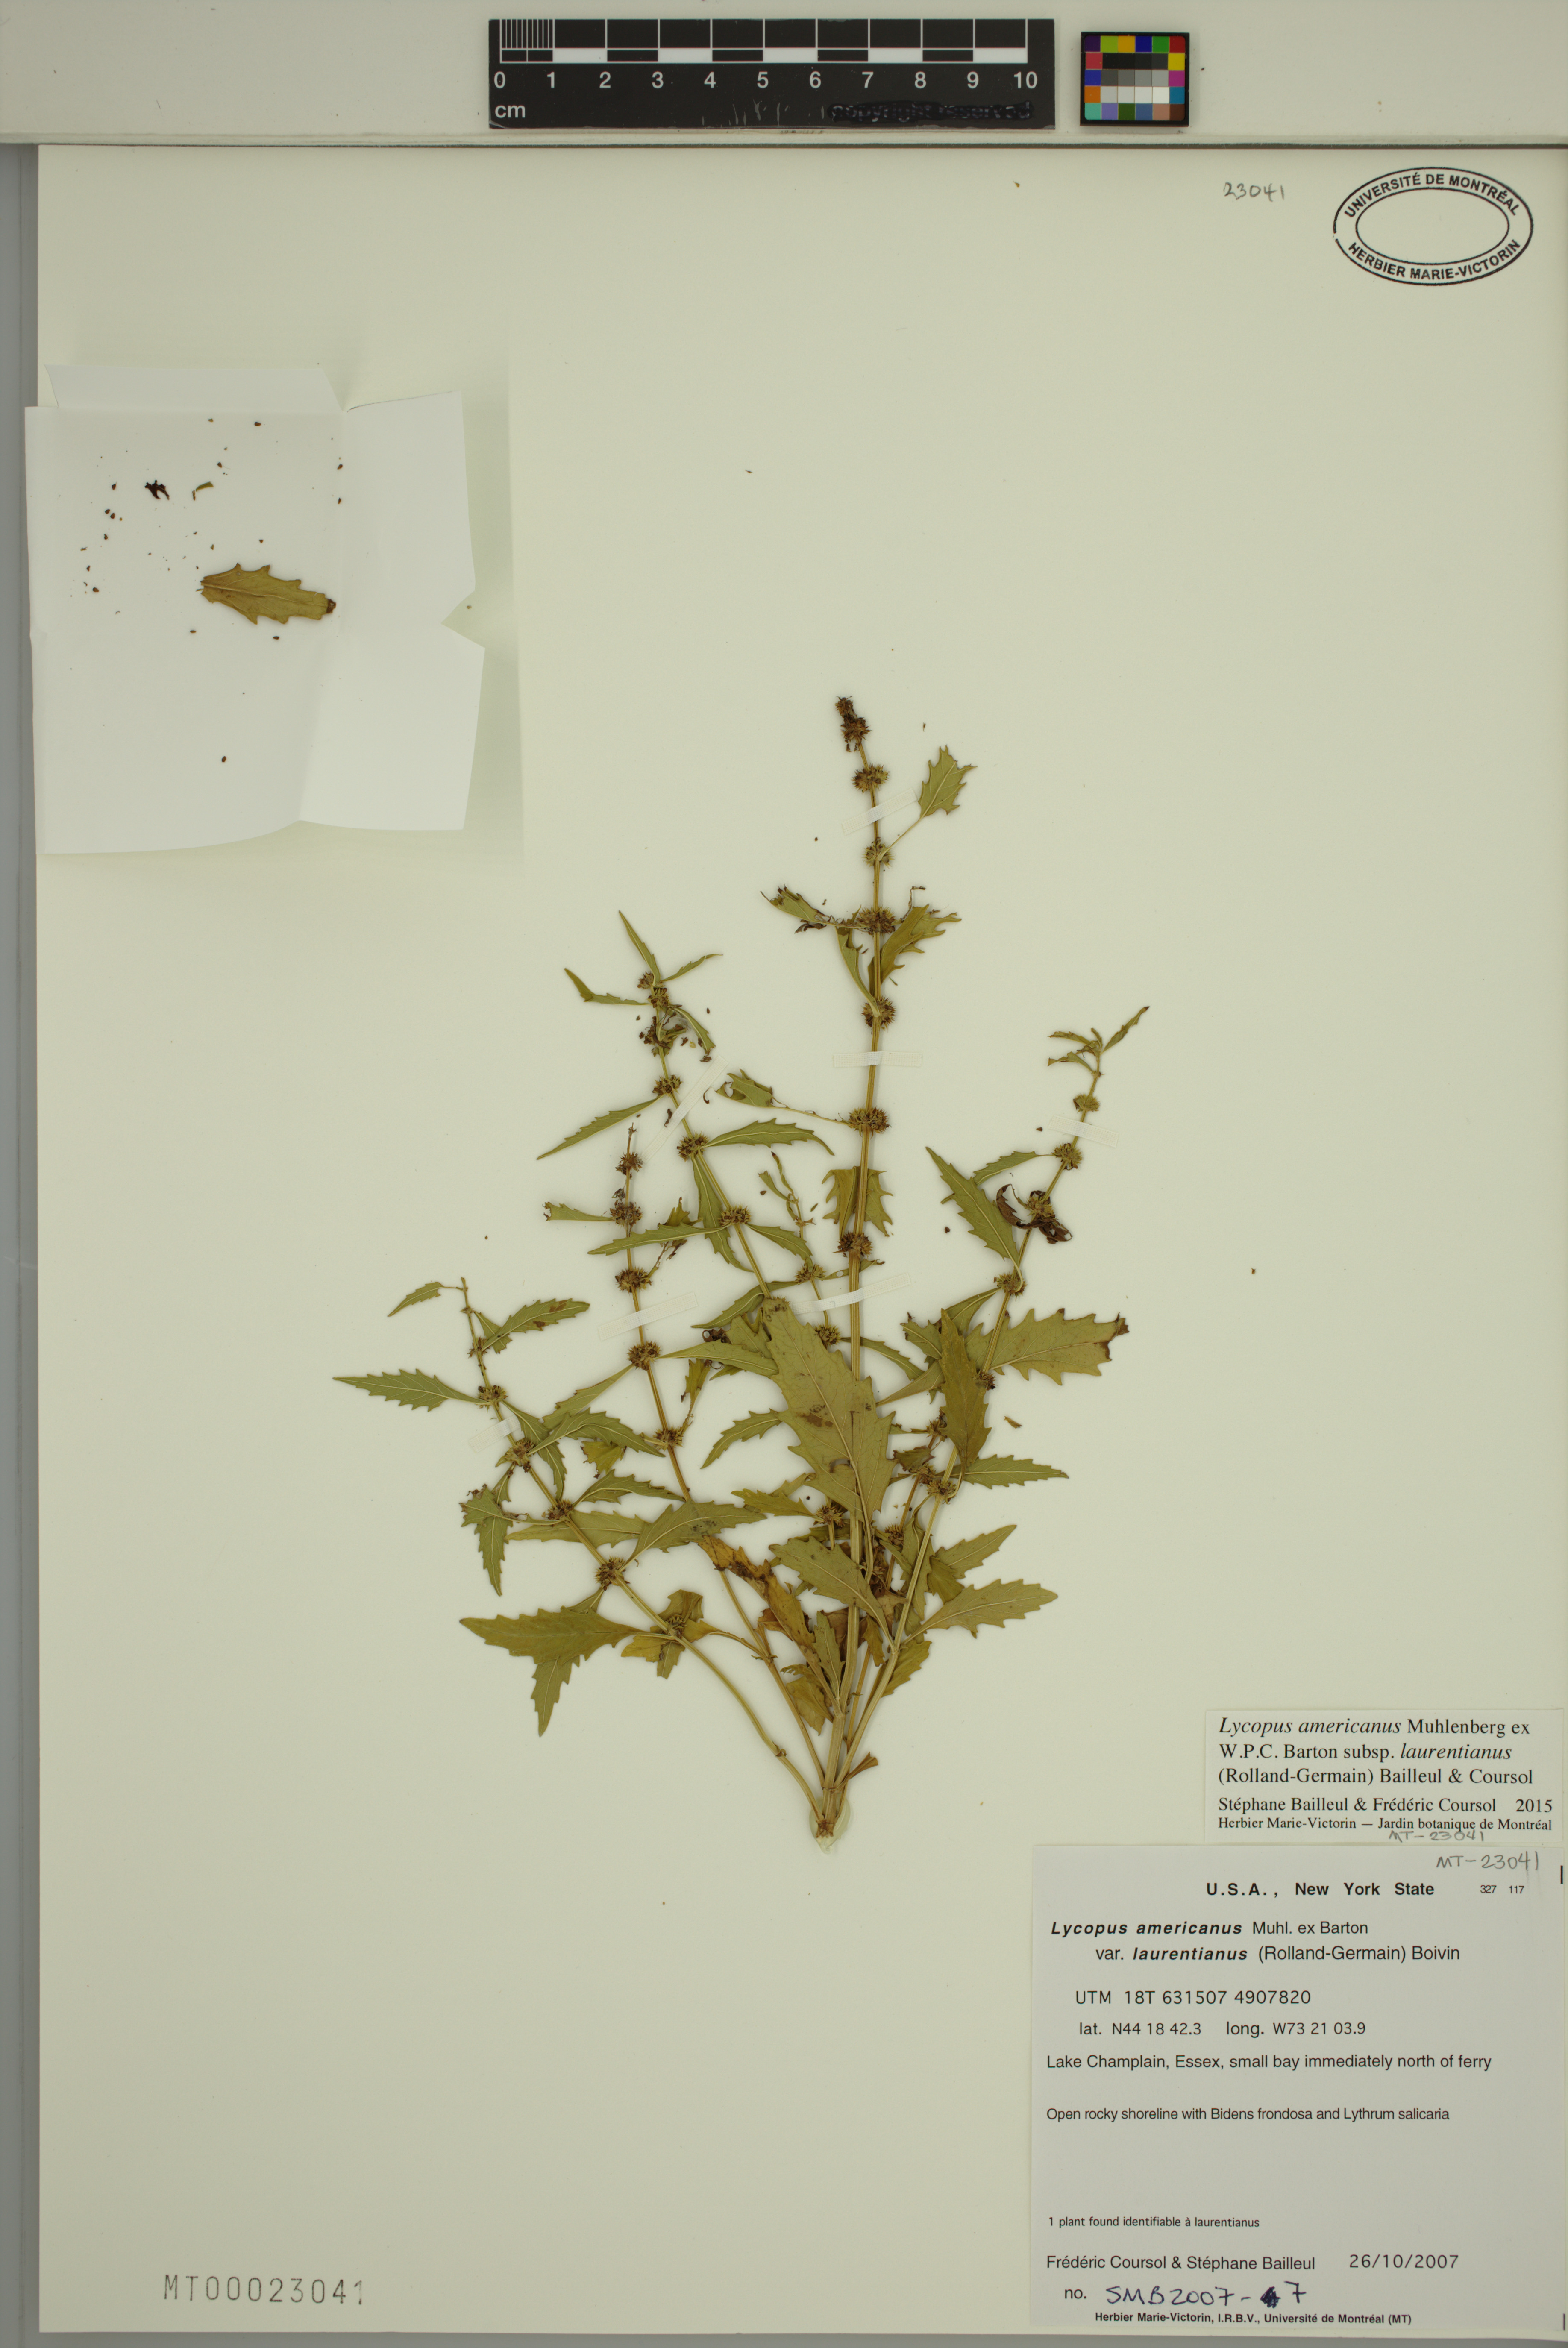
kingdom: Plantae
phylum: Tracheophyta
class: Magnoliopsida
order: Lamiales
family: Lamiaceae
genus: Lycopus
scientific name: Lycopus americanus
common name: American bugleweed
